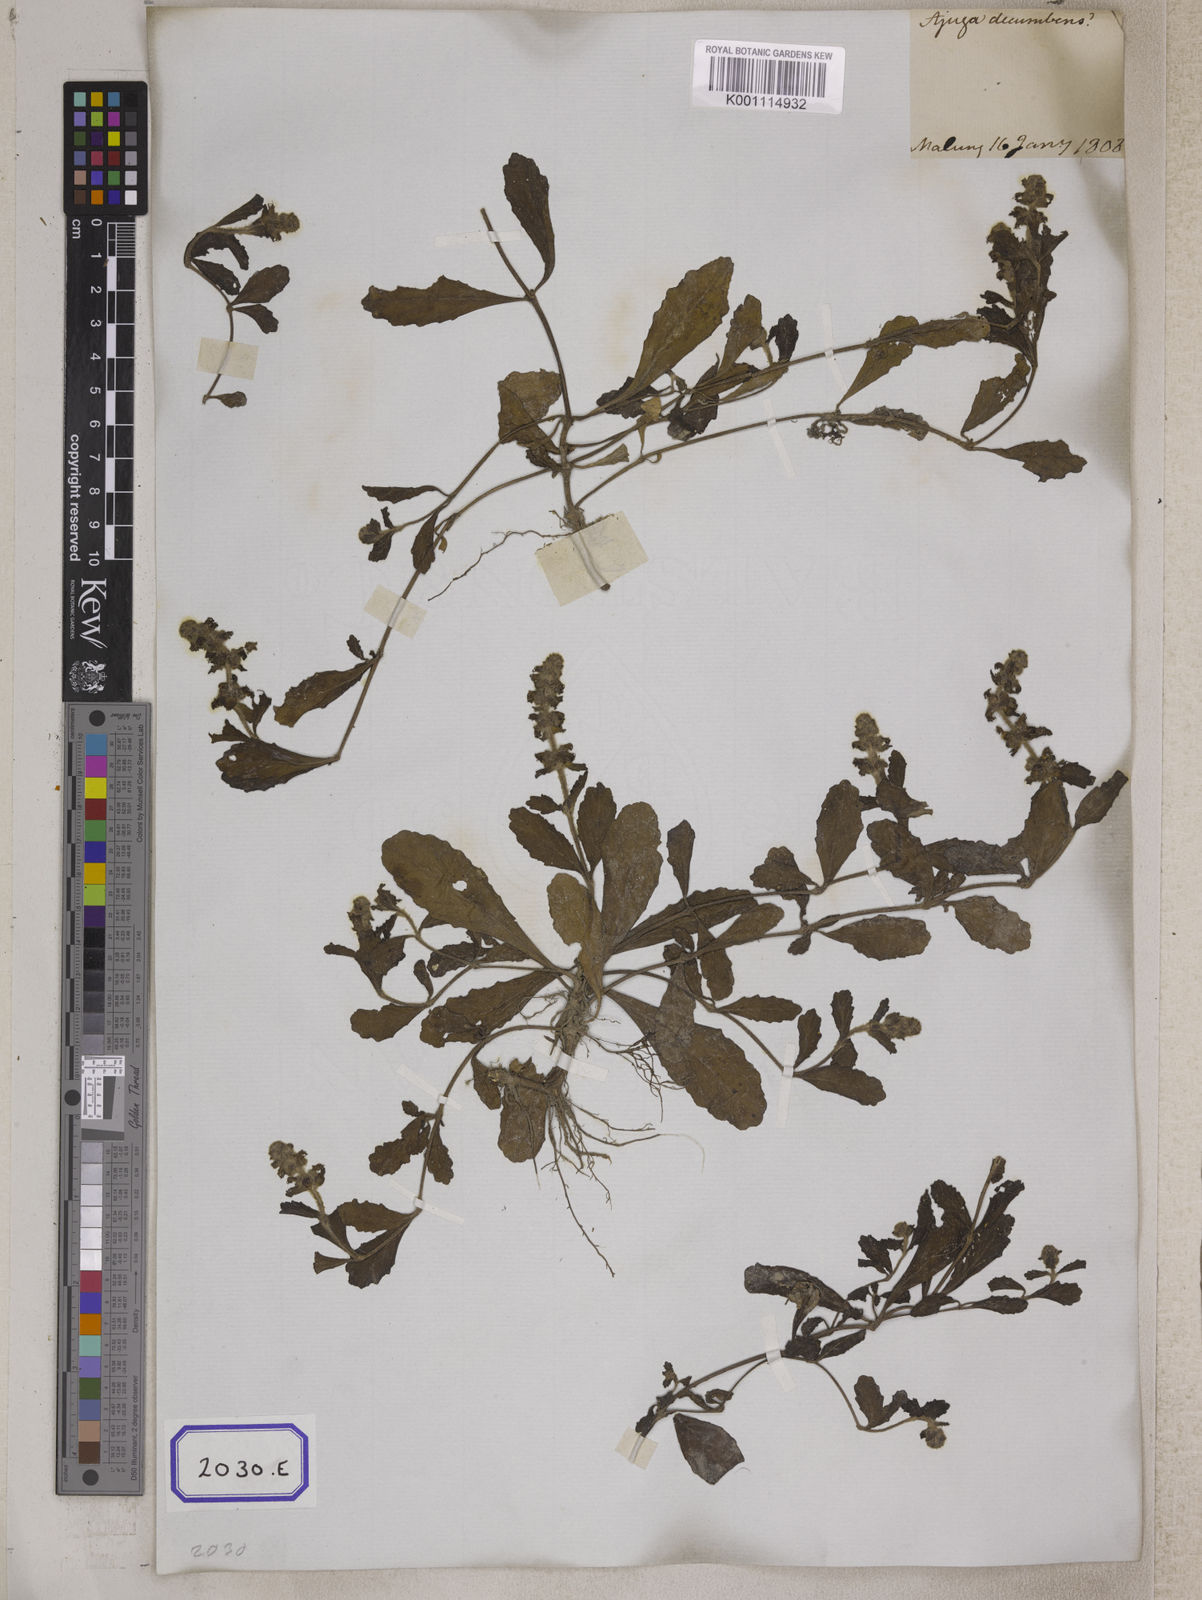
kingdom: Plantae
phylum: Tracheophyta
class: Magnoliopsida
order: Lamiales
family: Lamiaceae
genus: Ajuga
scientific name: Ajuga
